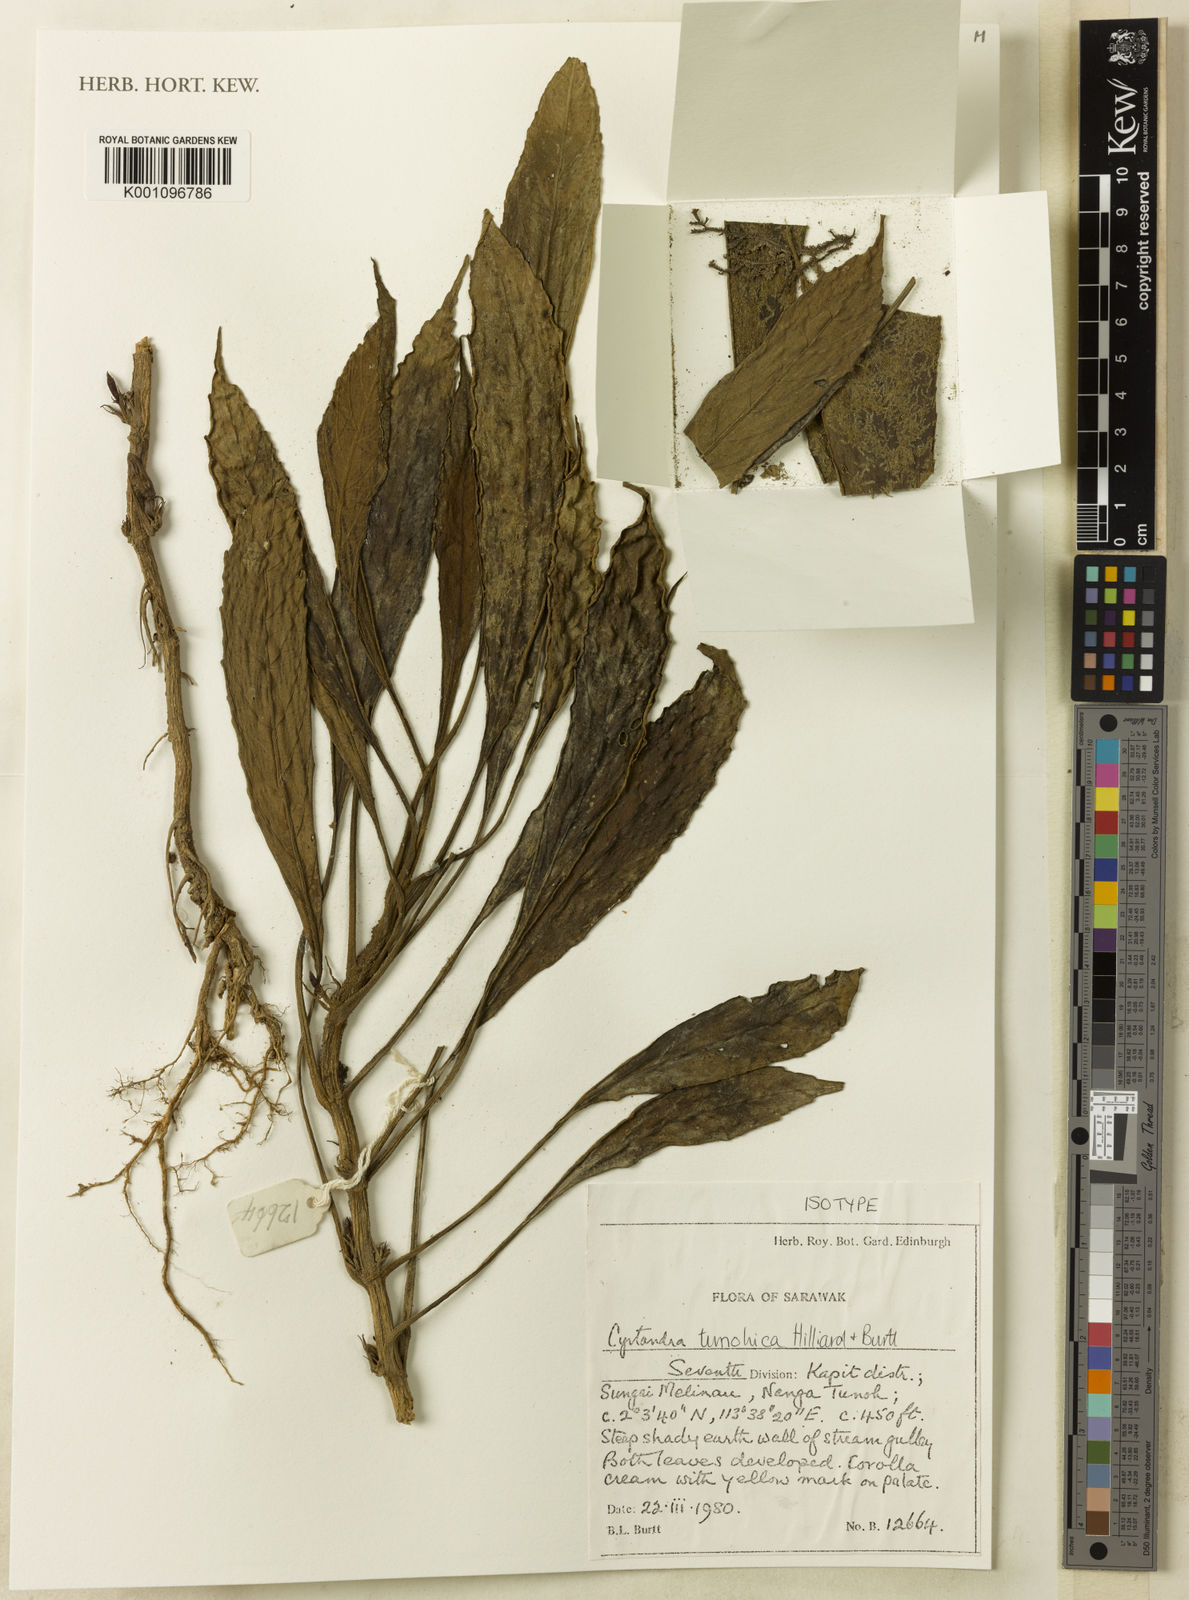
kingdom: Plantae
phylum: Tracheophyta
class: Magnoliopsida
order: Lamiales
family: Gesneriaceae
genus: Cyrtandra
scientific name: Cyrtandra tunohica
